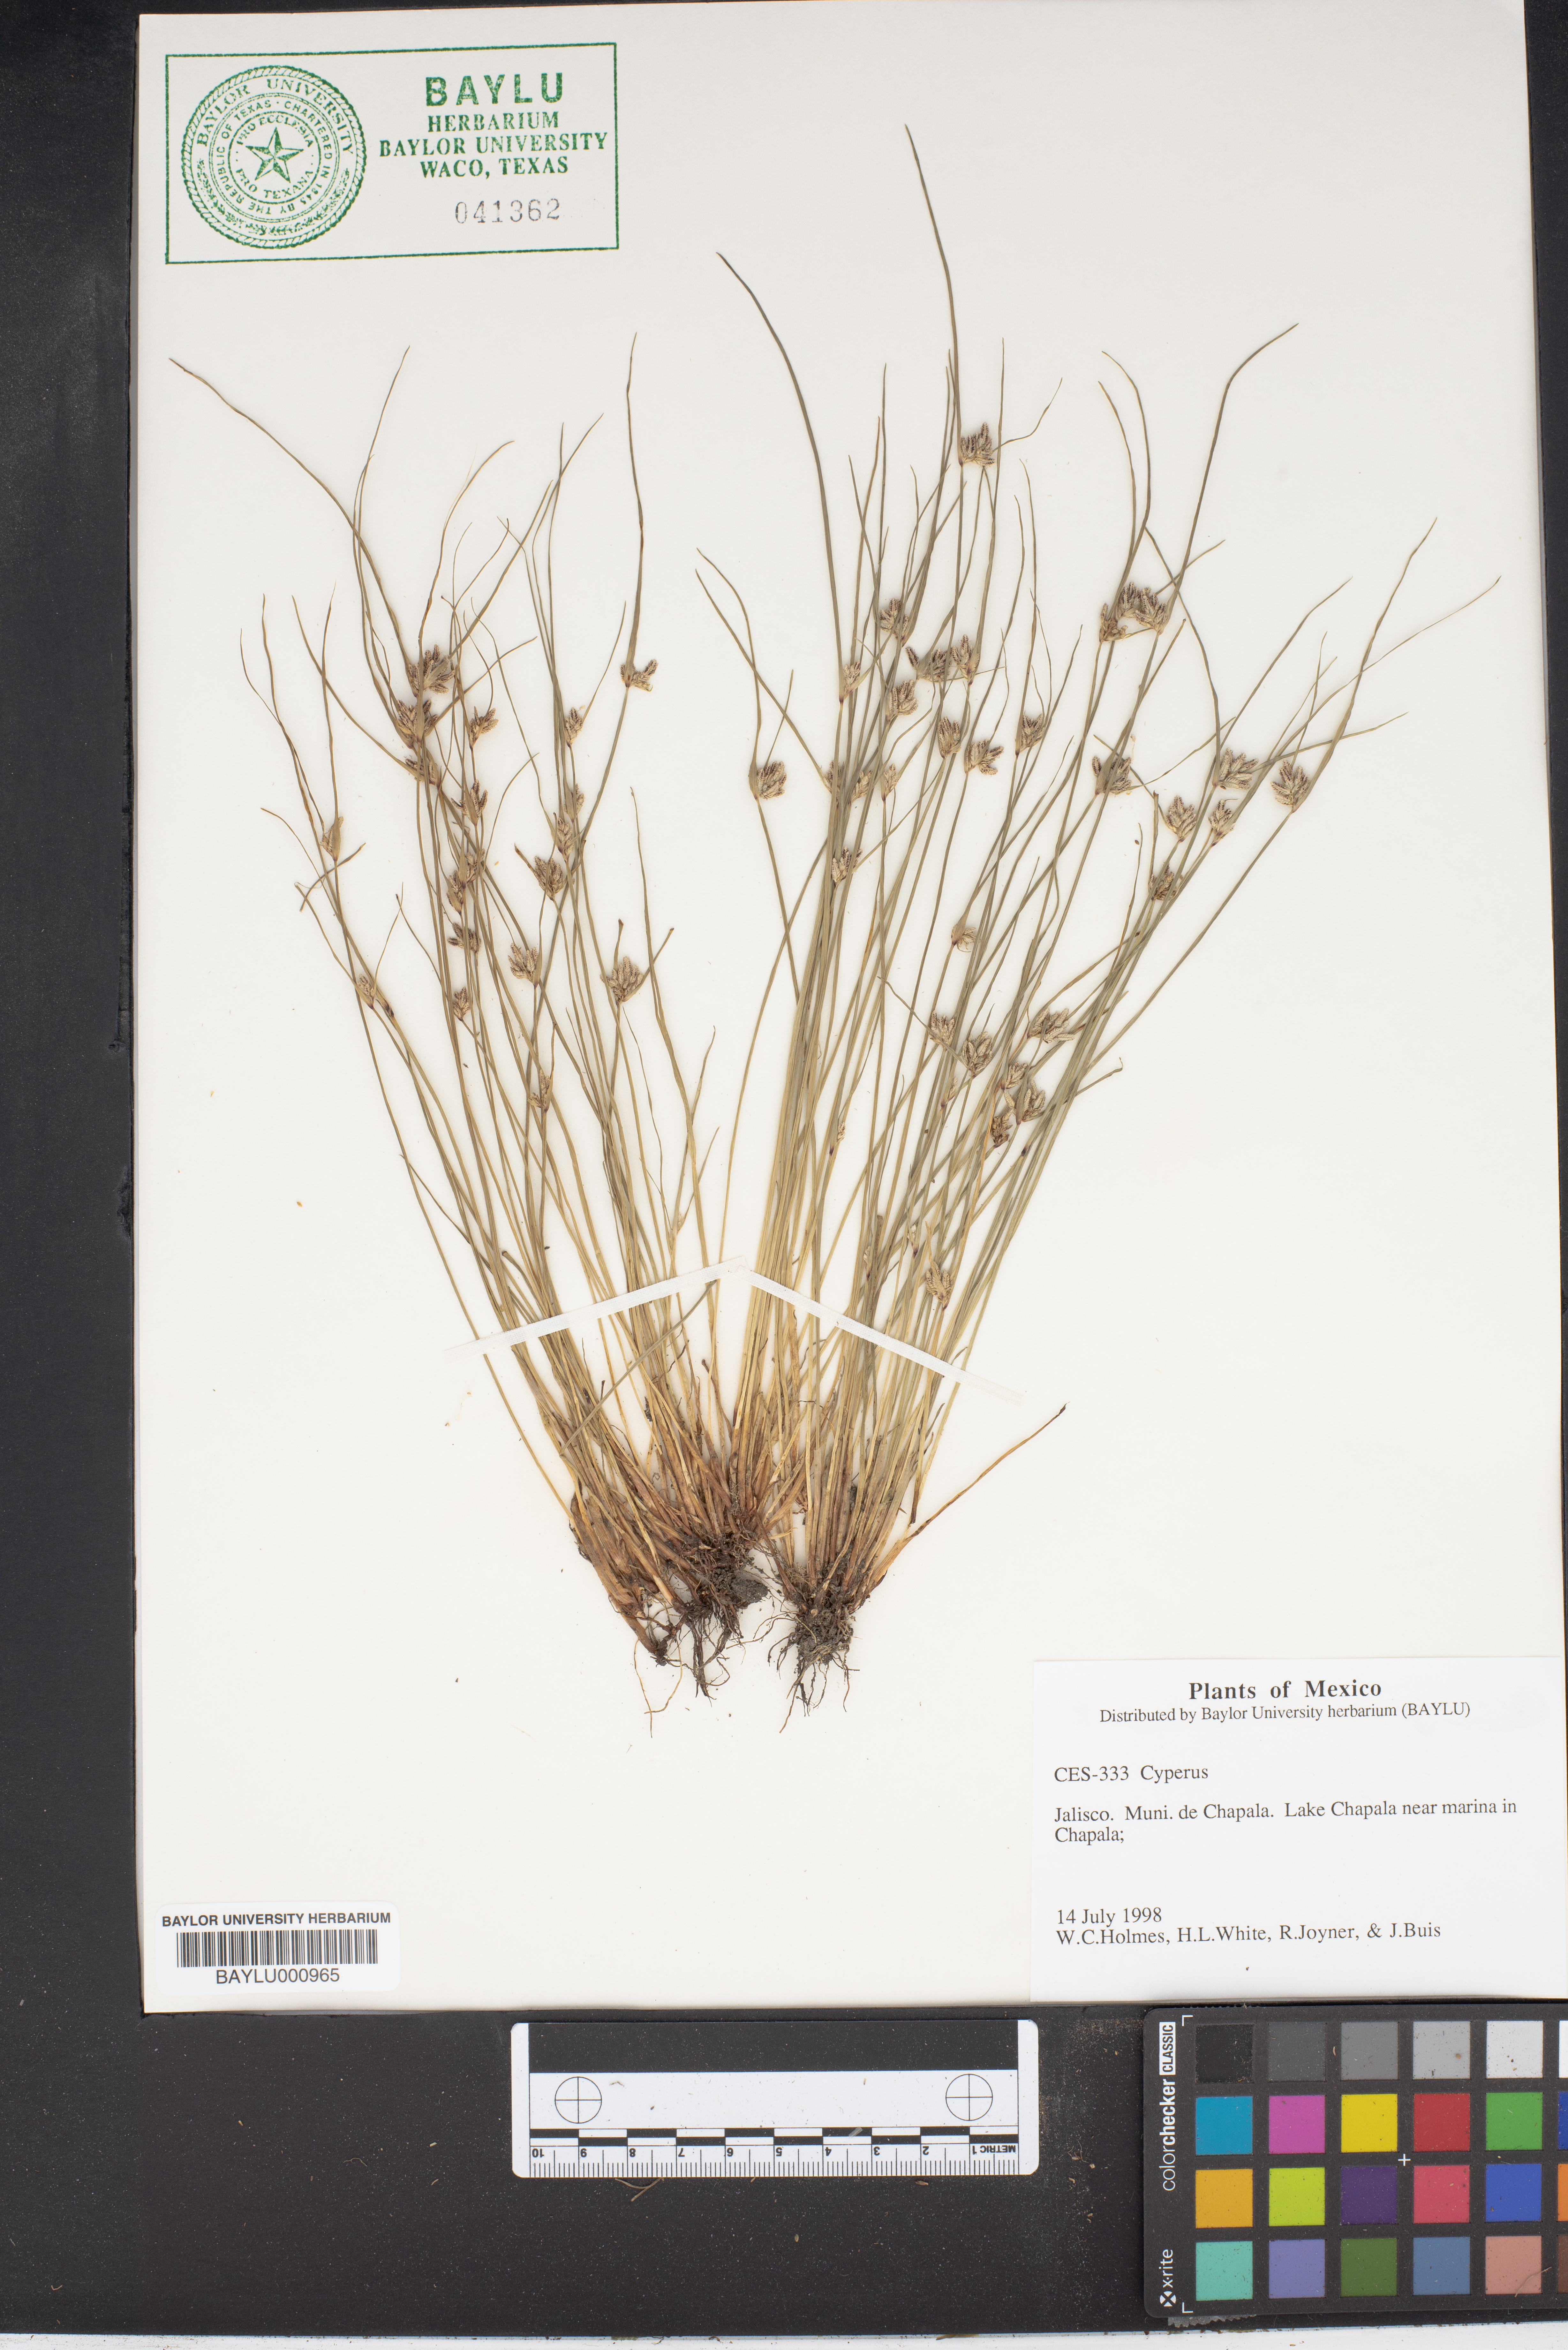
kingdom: Plantae
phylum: Tracheophyta
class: Liliopsida
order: Poales
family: Cyperaceae
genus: Cyperus
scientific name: Cyperus
